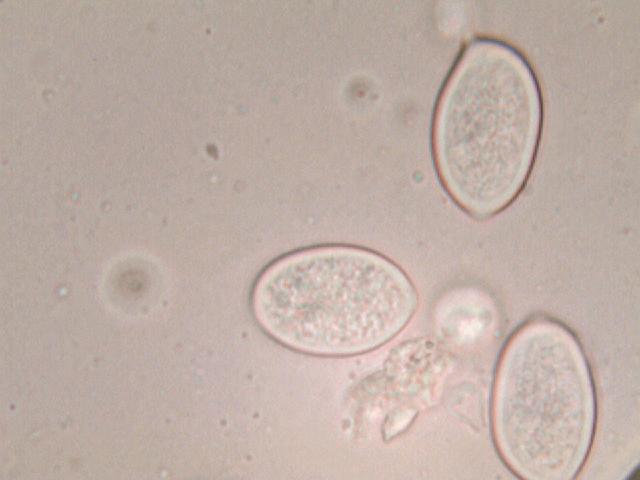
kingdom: Fungi
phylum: Basidiomycota
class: Agaricomycetes
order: Agaricales
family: Agaricaceae
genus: Macrolepiota
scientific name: Macrolepiota mastoidea
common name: puklet kæmpeparasolhat
